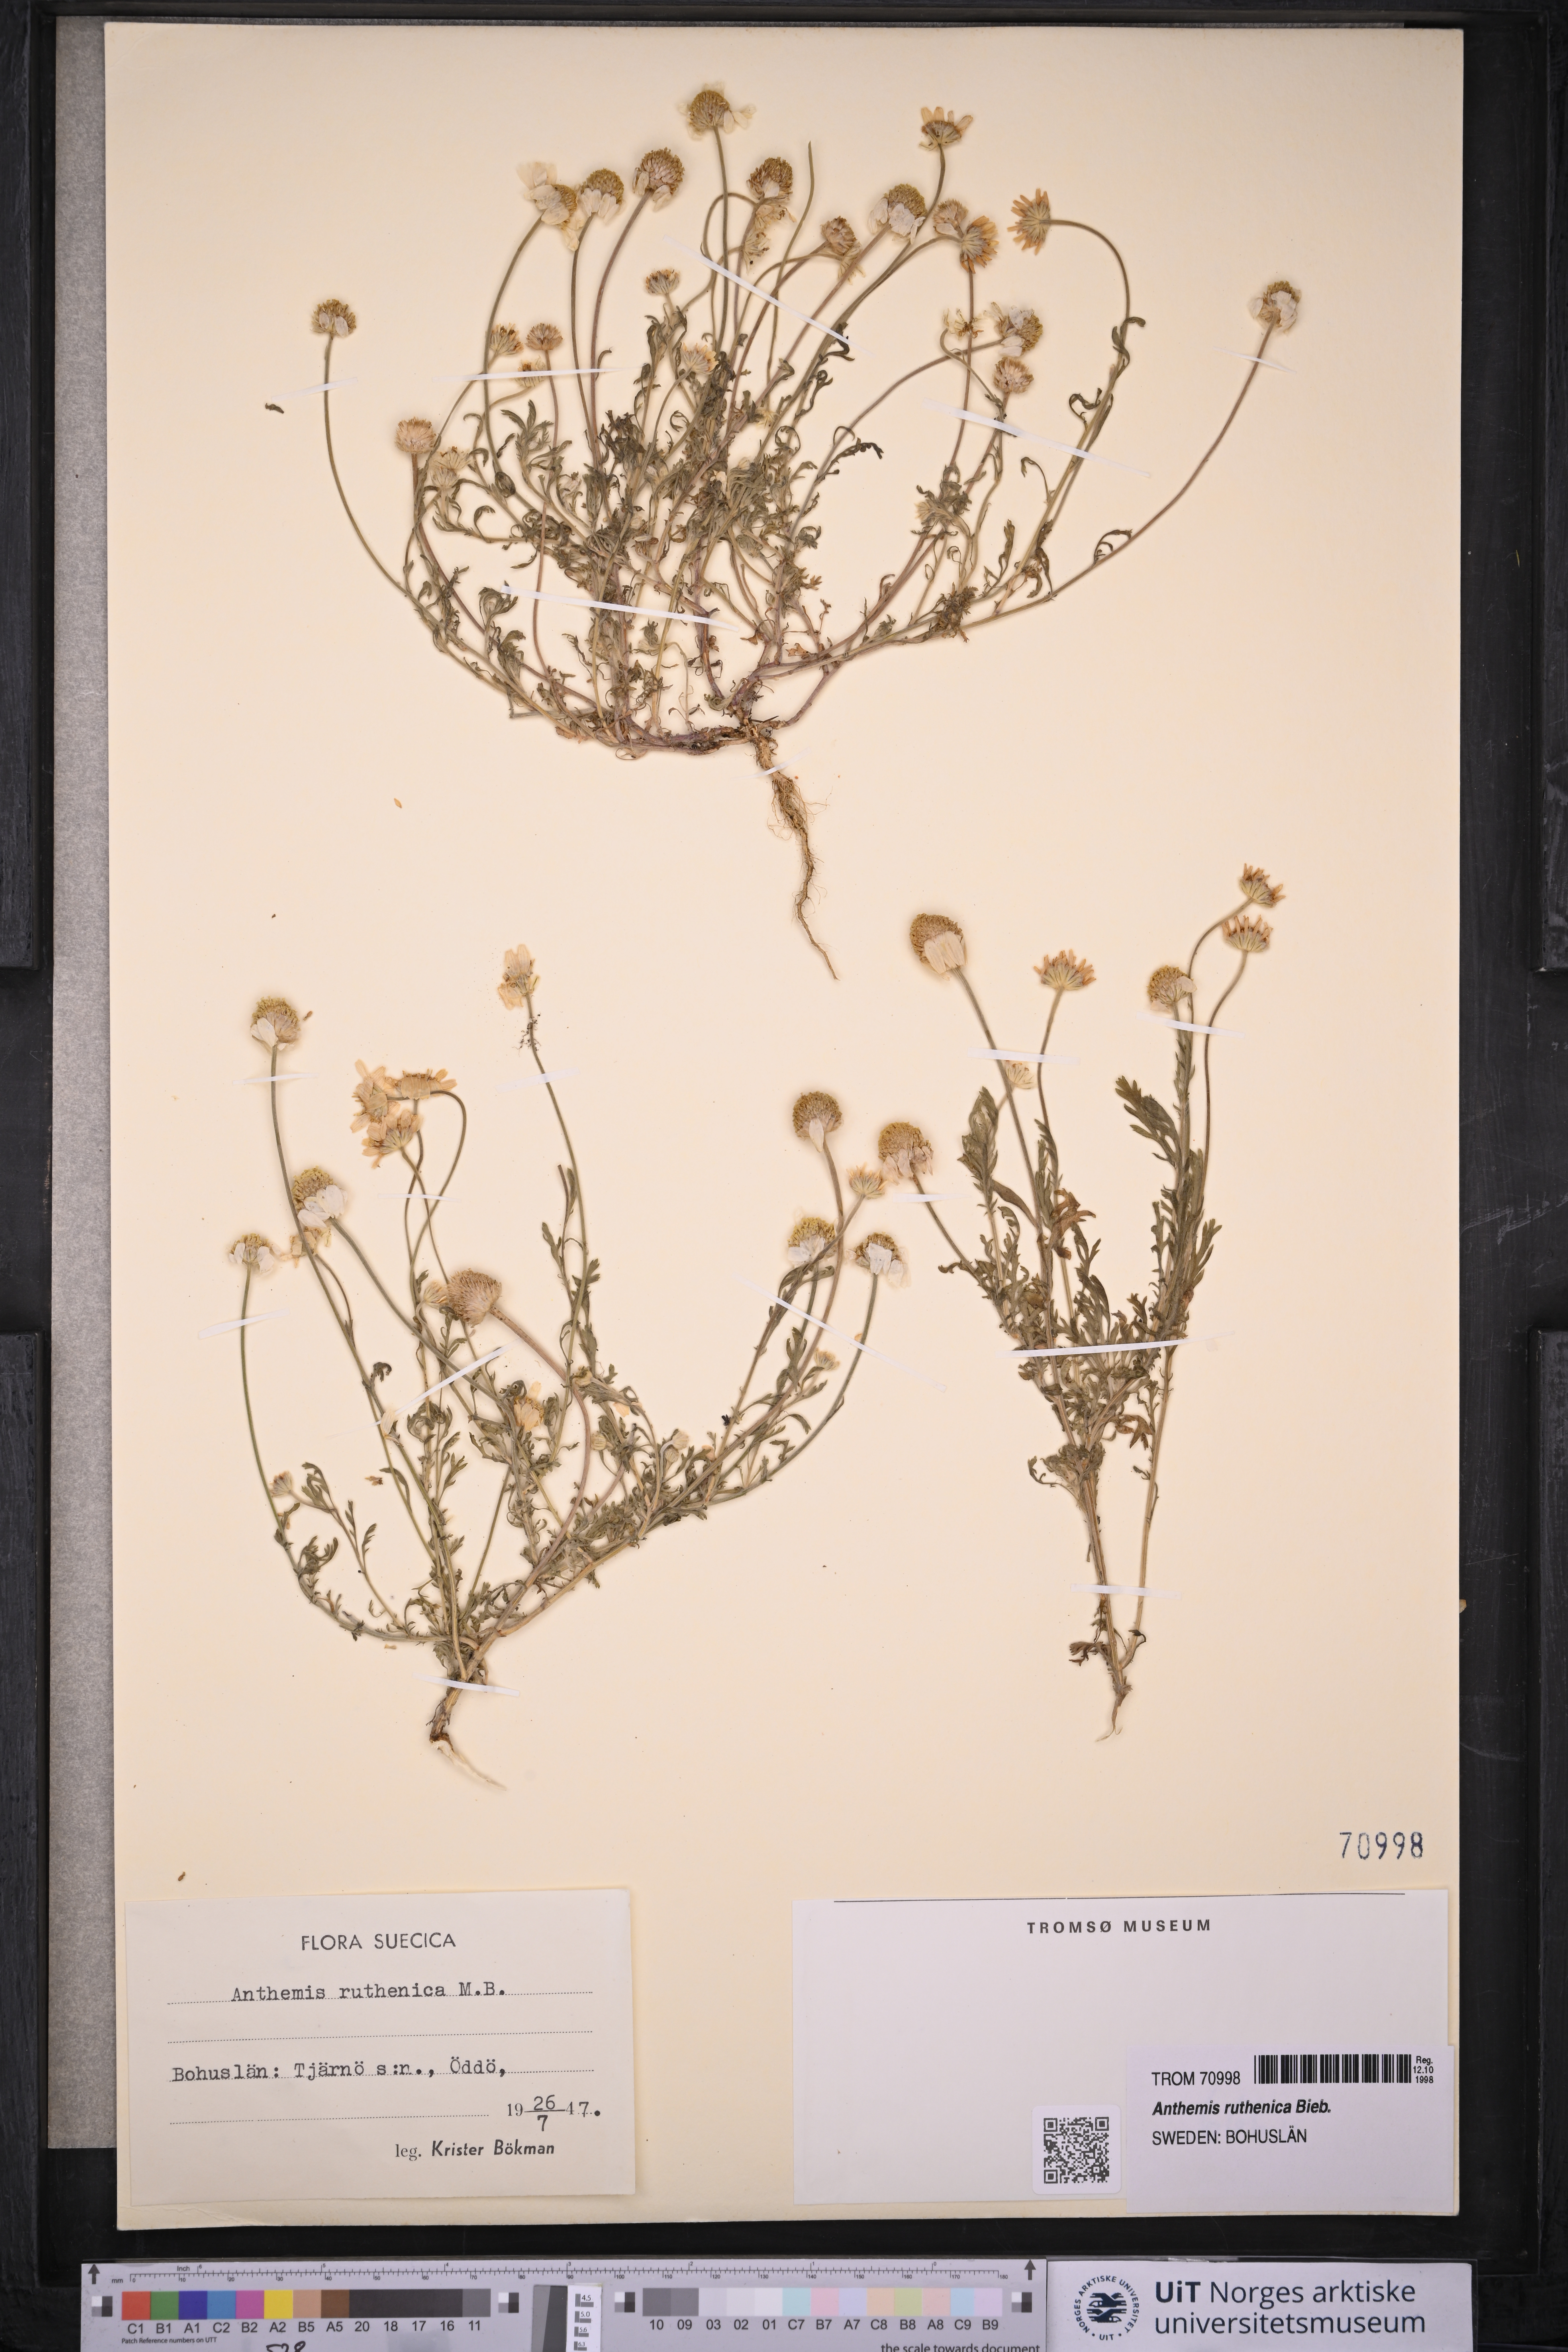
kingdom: Plantae
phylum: Tracheophyta
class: Magnoliopsida
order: Asterales
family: Asteraceae
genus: Anthemis
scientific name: Anthemis ruthenica
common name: Eastern chamomile
